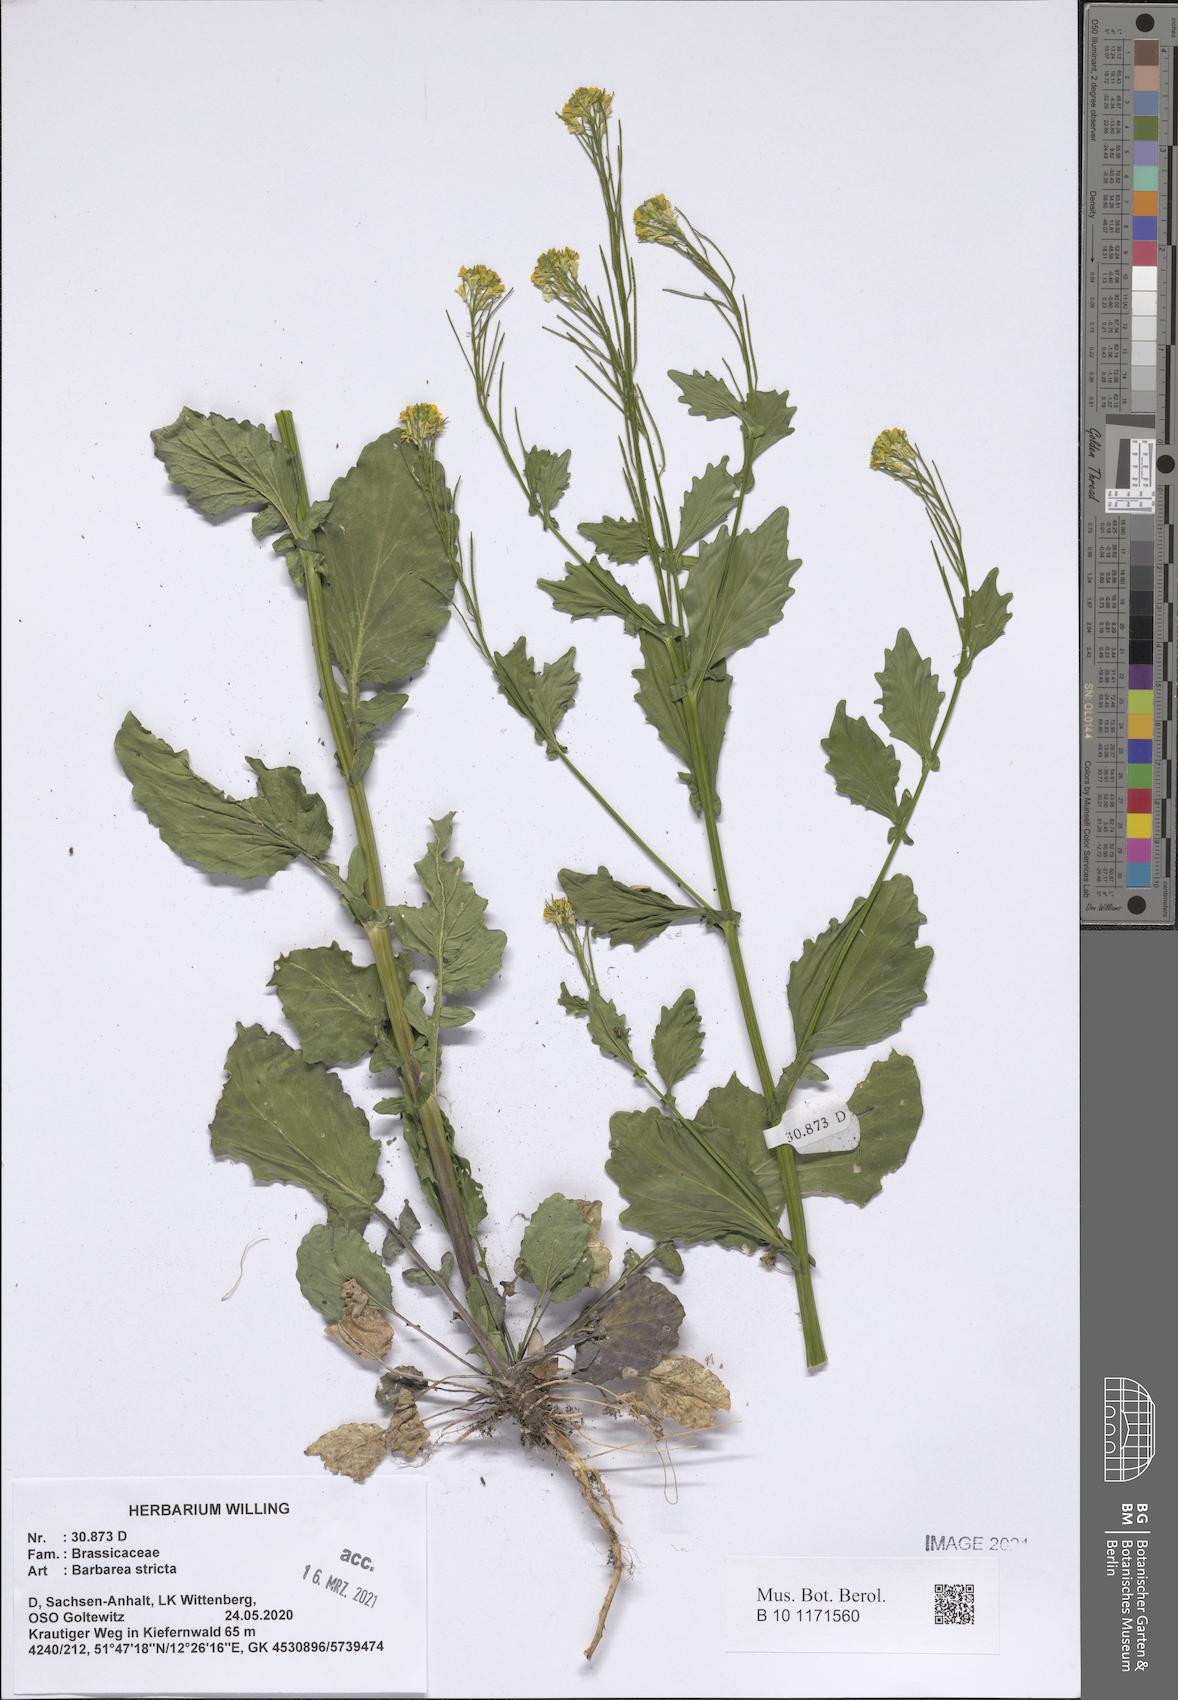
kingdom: Plantae
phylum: Tracheophyta
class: Magnoliopsida
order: Brassicales
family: Brassicaceae
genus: Barbarea
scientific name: Barbarea stricta
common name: Small-flowered winter-cress
